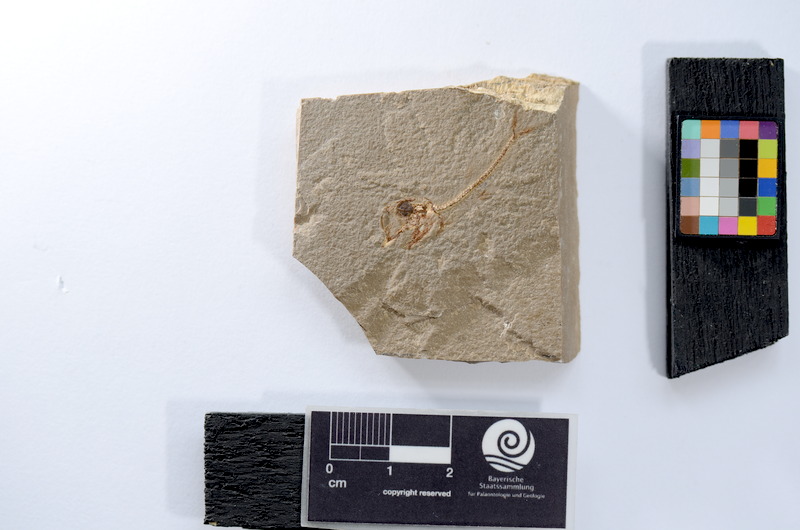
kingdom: Animalia
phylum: Chordata
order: Elopiformes
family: Anaethalionidae
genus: Anaethalion
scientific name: Anaethalion
